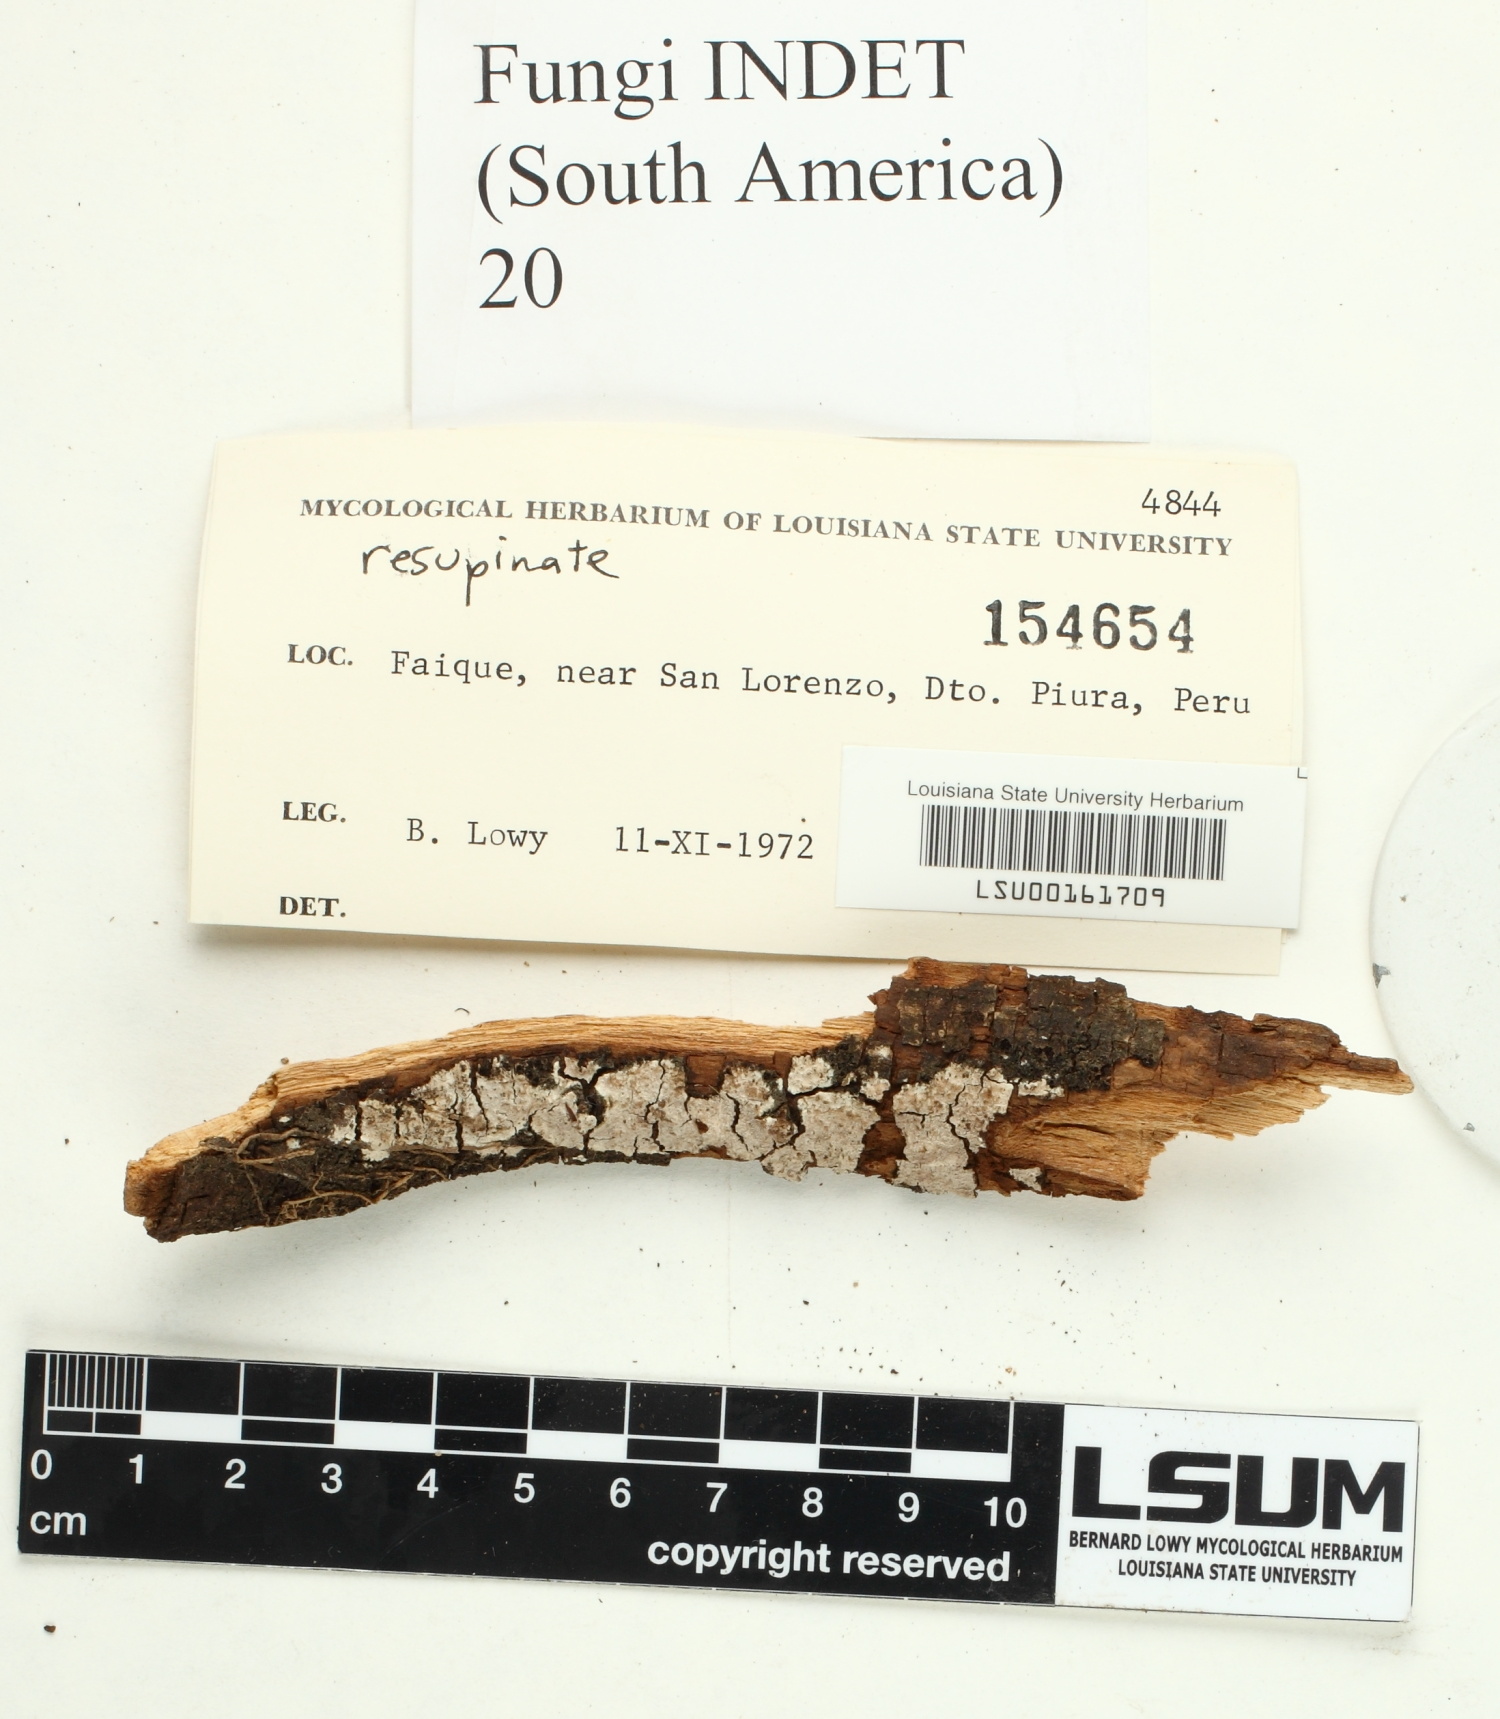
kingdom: Fungi
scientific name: Fungi
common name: Fungi
